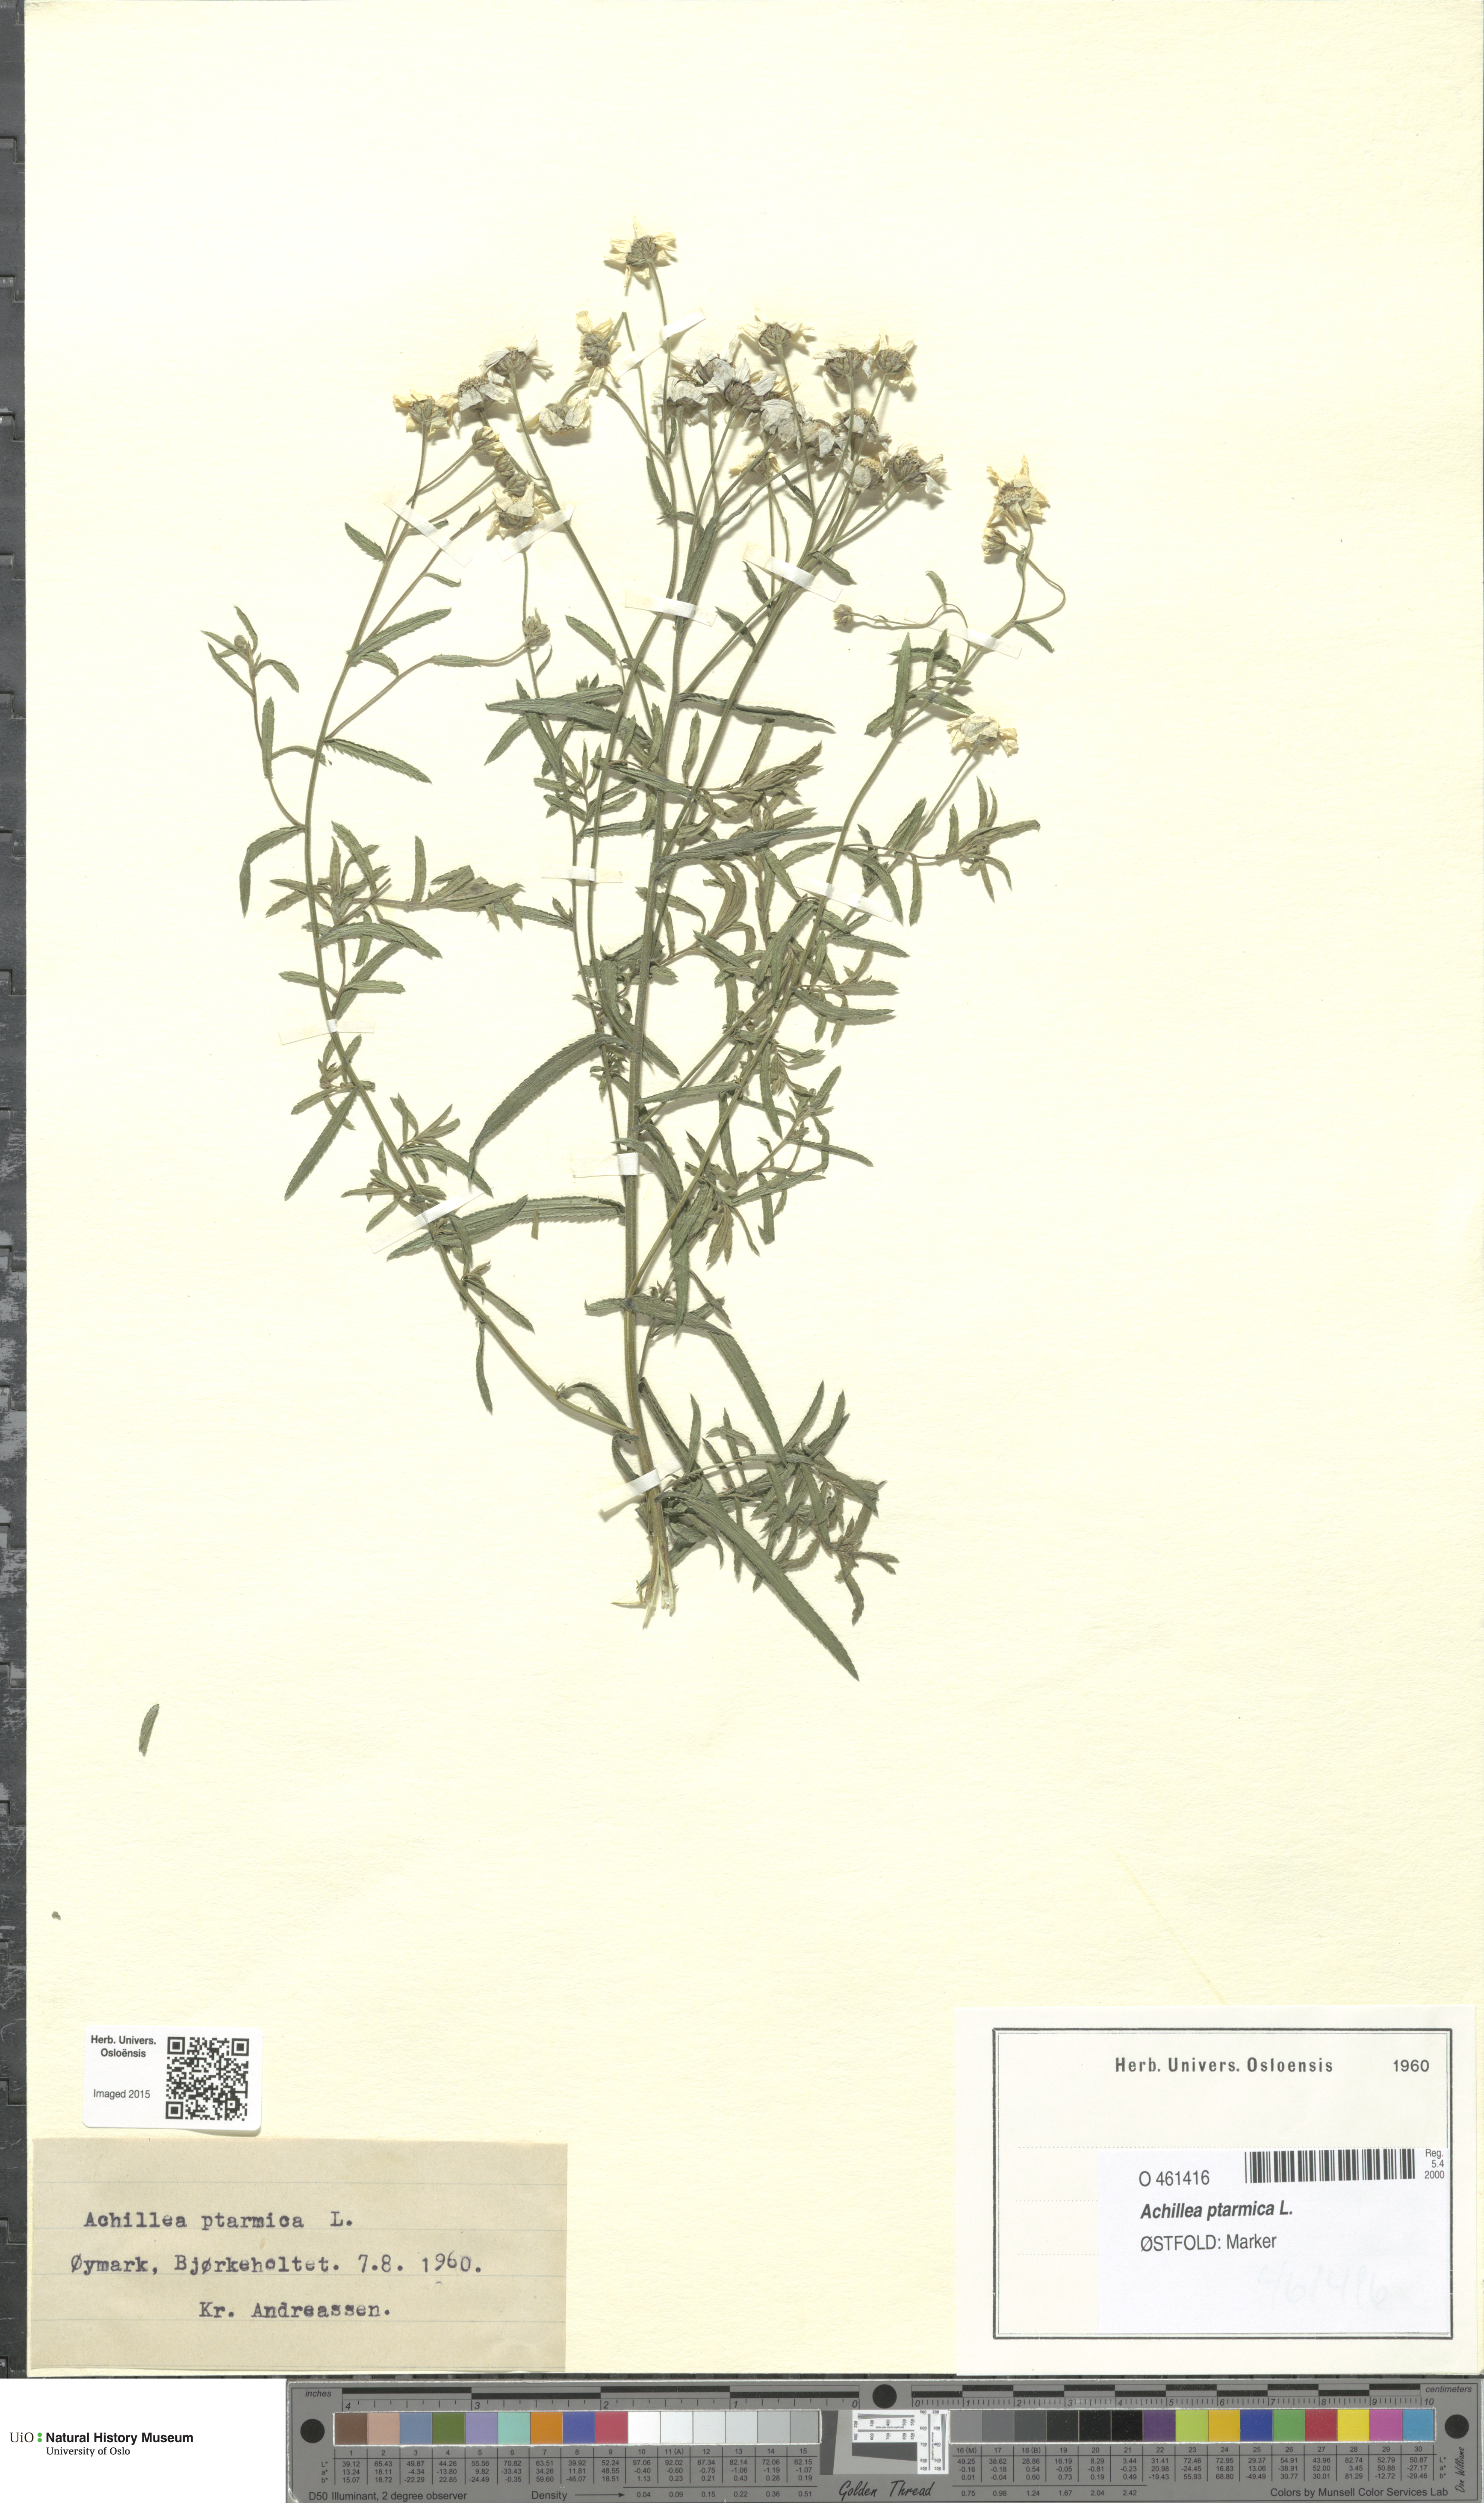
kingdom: Plantae
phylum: Tracheophyta
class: Magnoliopsida
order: Asterales
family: Asteraceae
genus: Achillea
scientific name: Achillea ptarmica
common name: Sneezeweed
